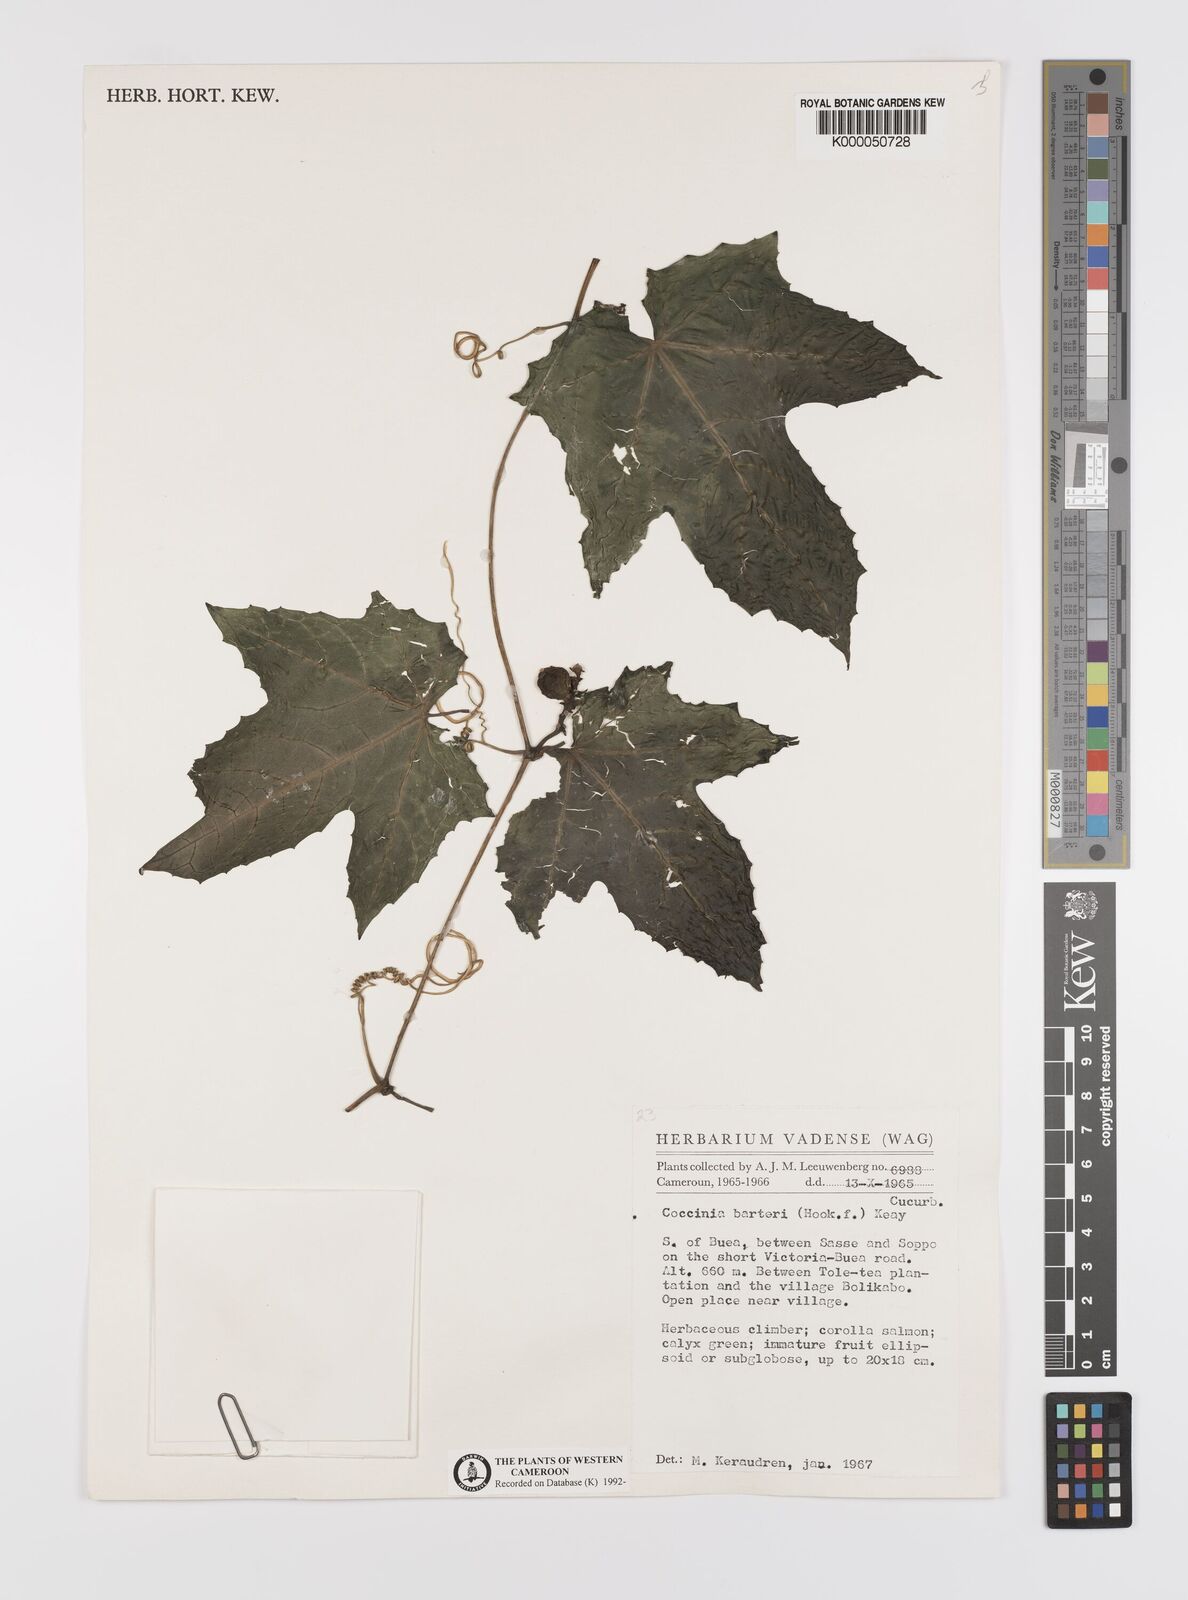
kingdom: Plantae
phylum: Tracheophyta
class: Magnoliopsida
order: Cucurbitales
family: Cucurbitaceae
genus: Coccinia
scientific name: Coccinia barteri
